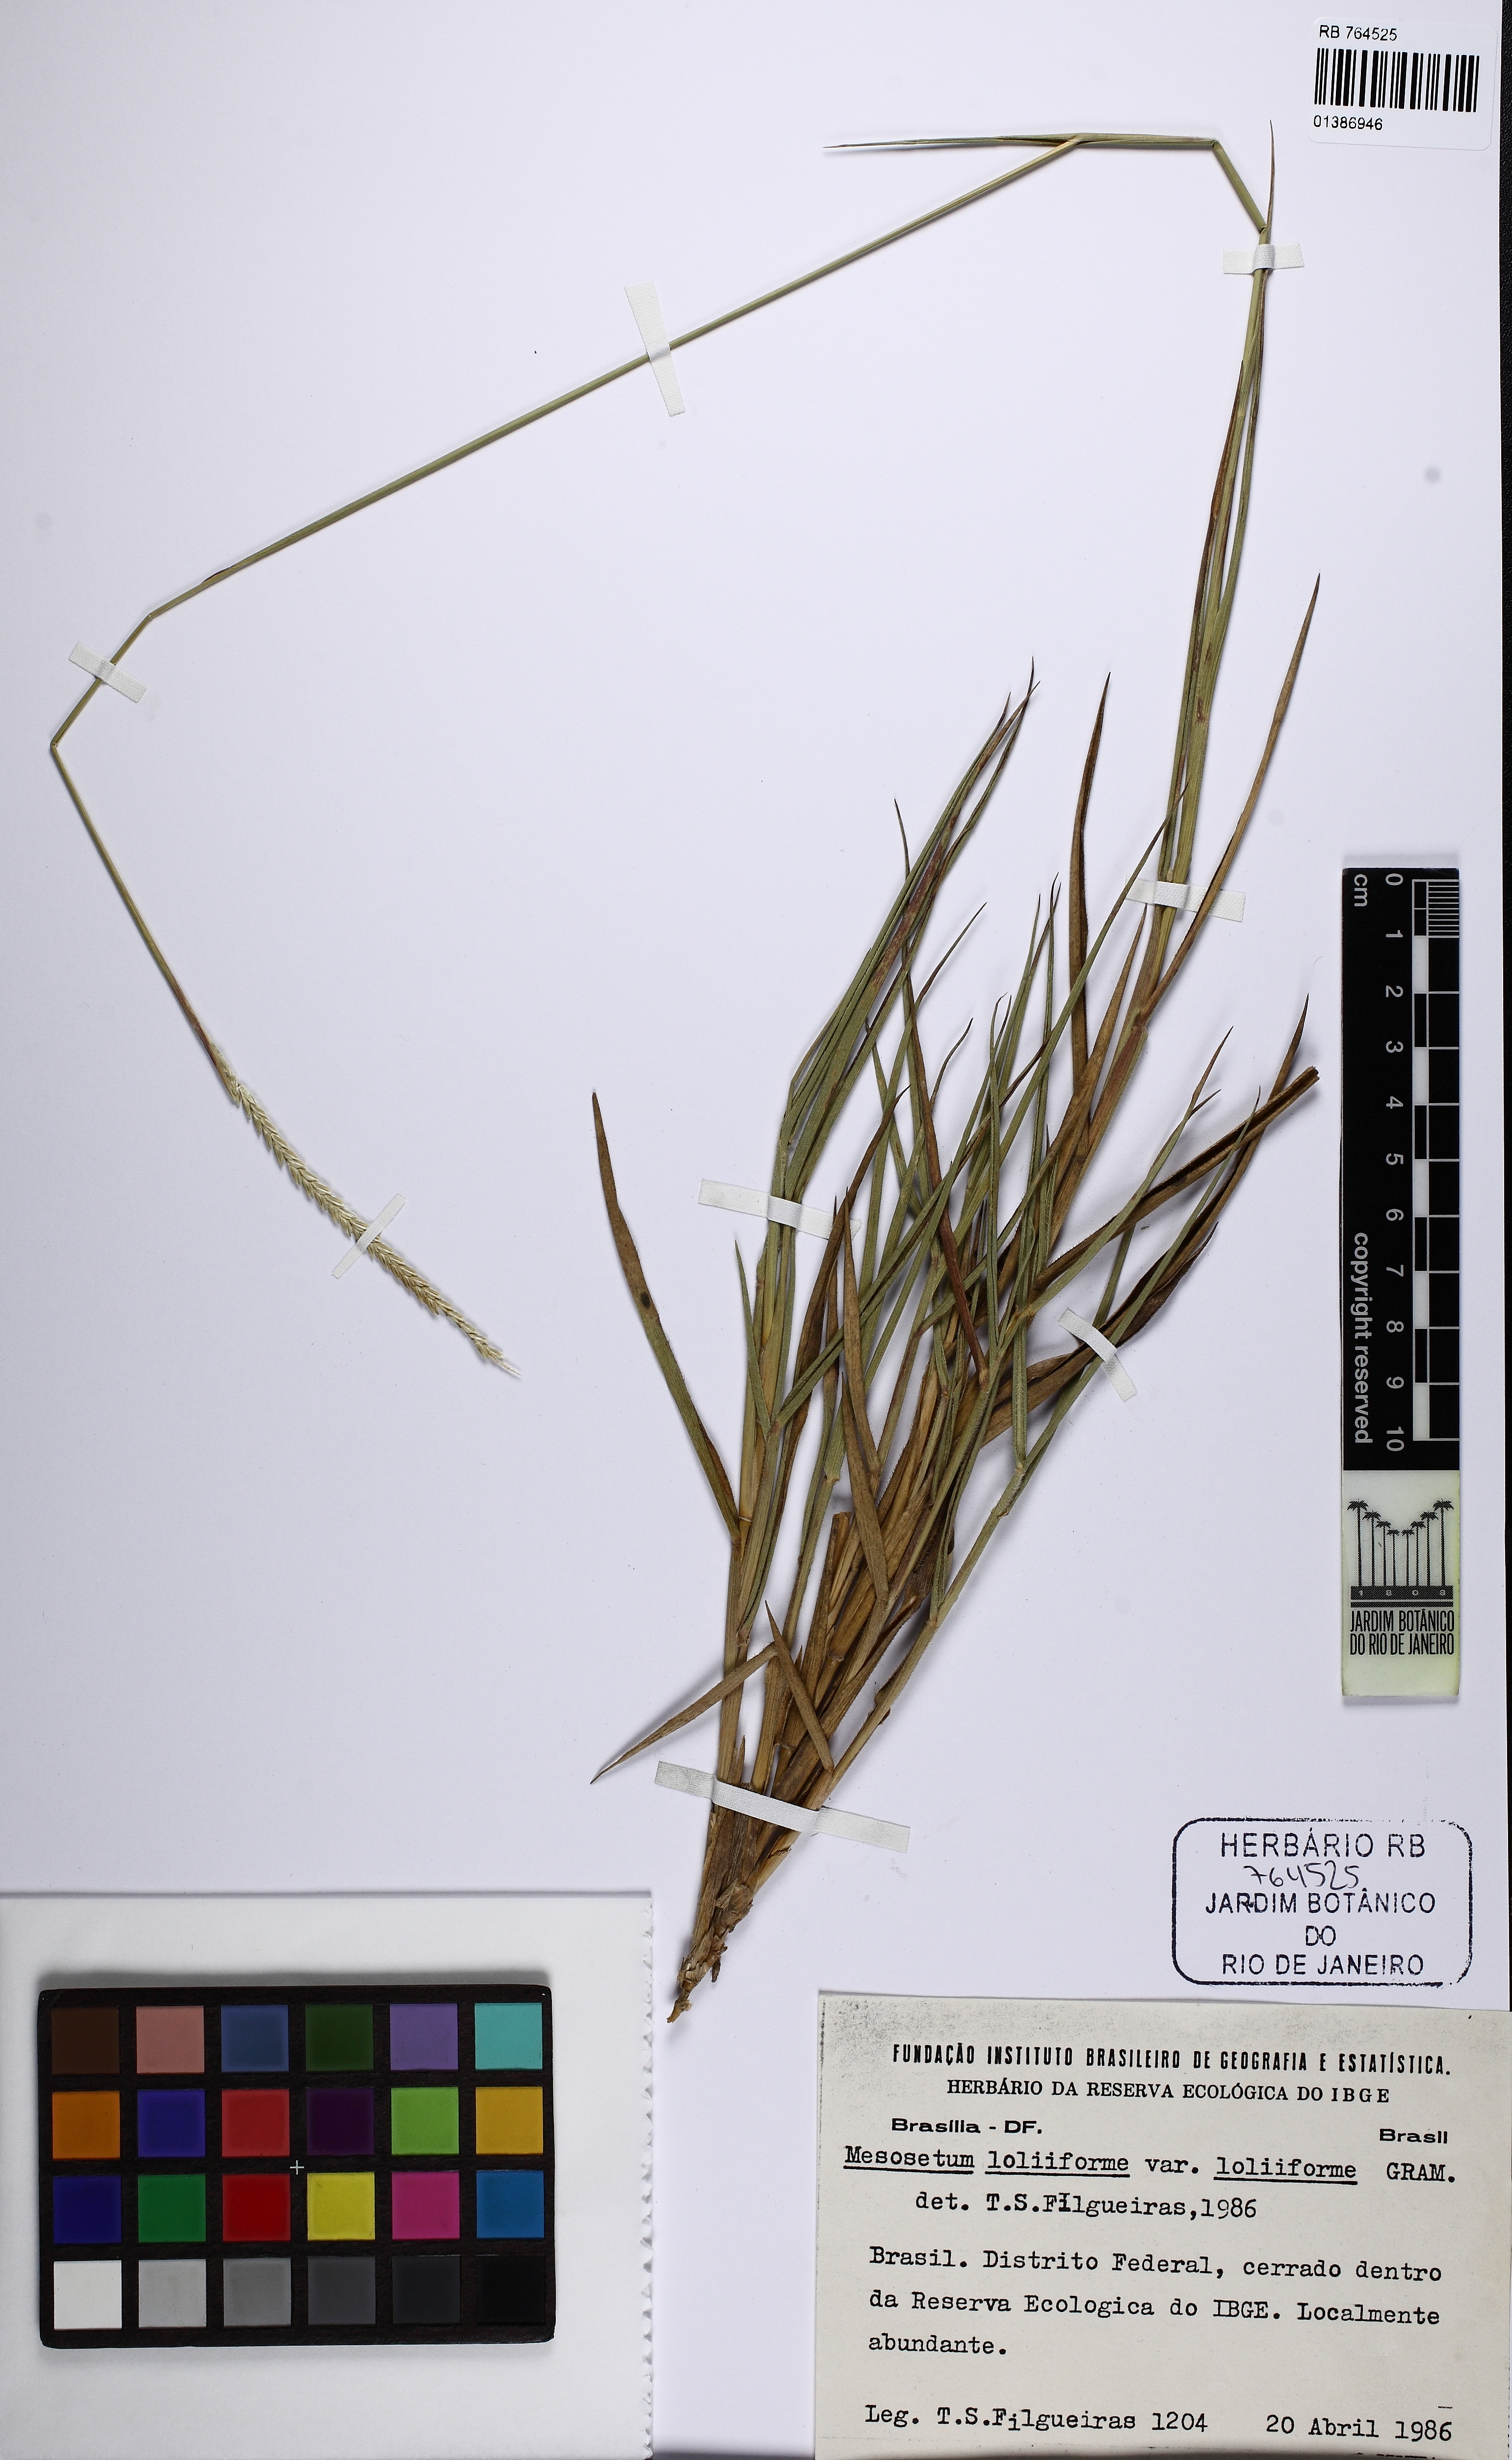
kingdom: Plantae
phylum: Tracheophyta
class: Liliopsida
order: Poales
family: Poaceae
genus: Mesosetum
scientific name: Mesosetum loliiforme
